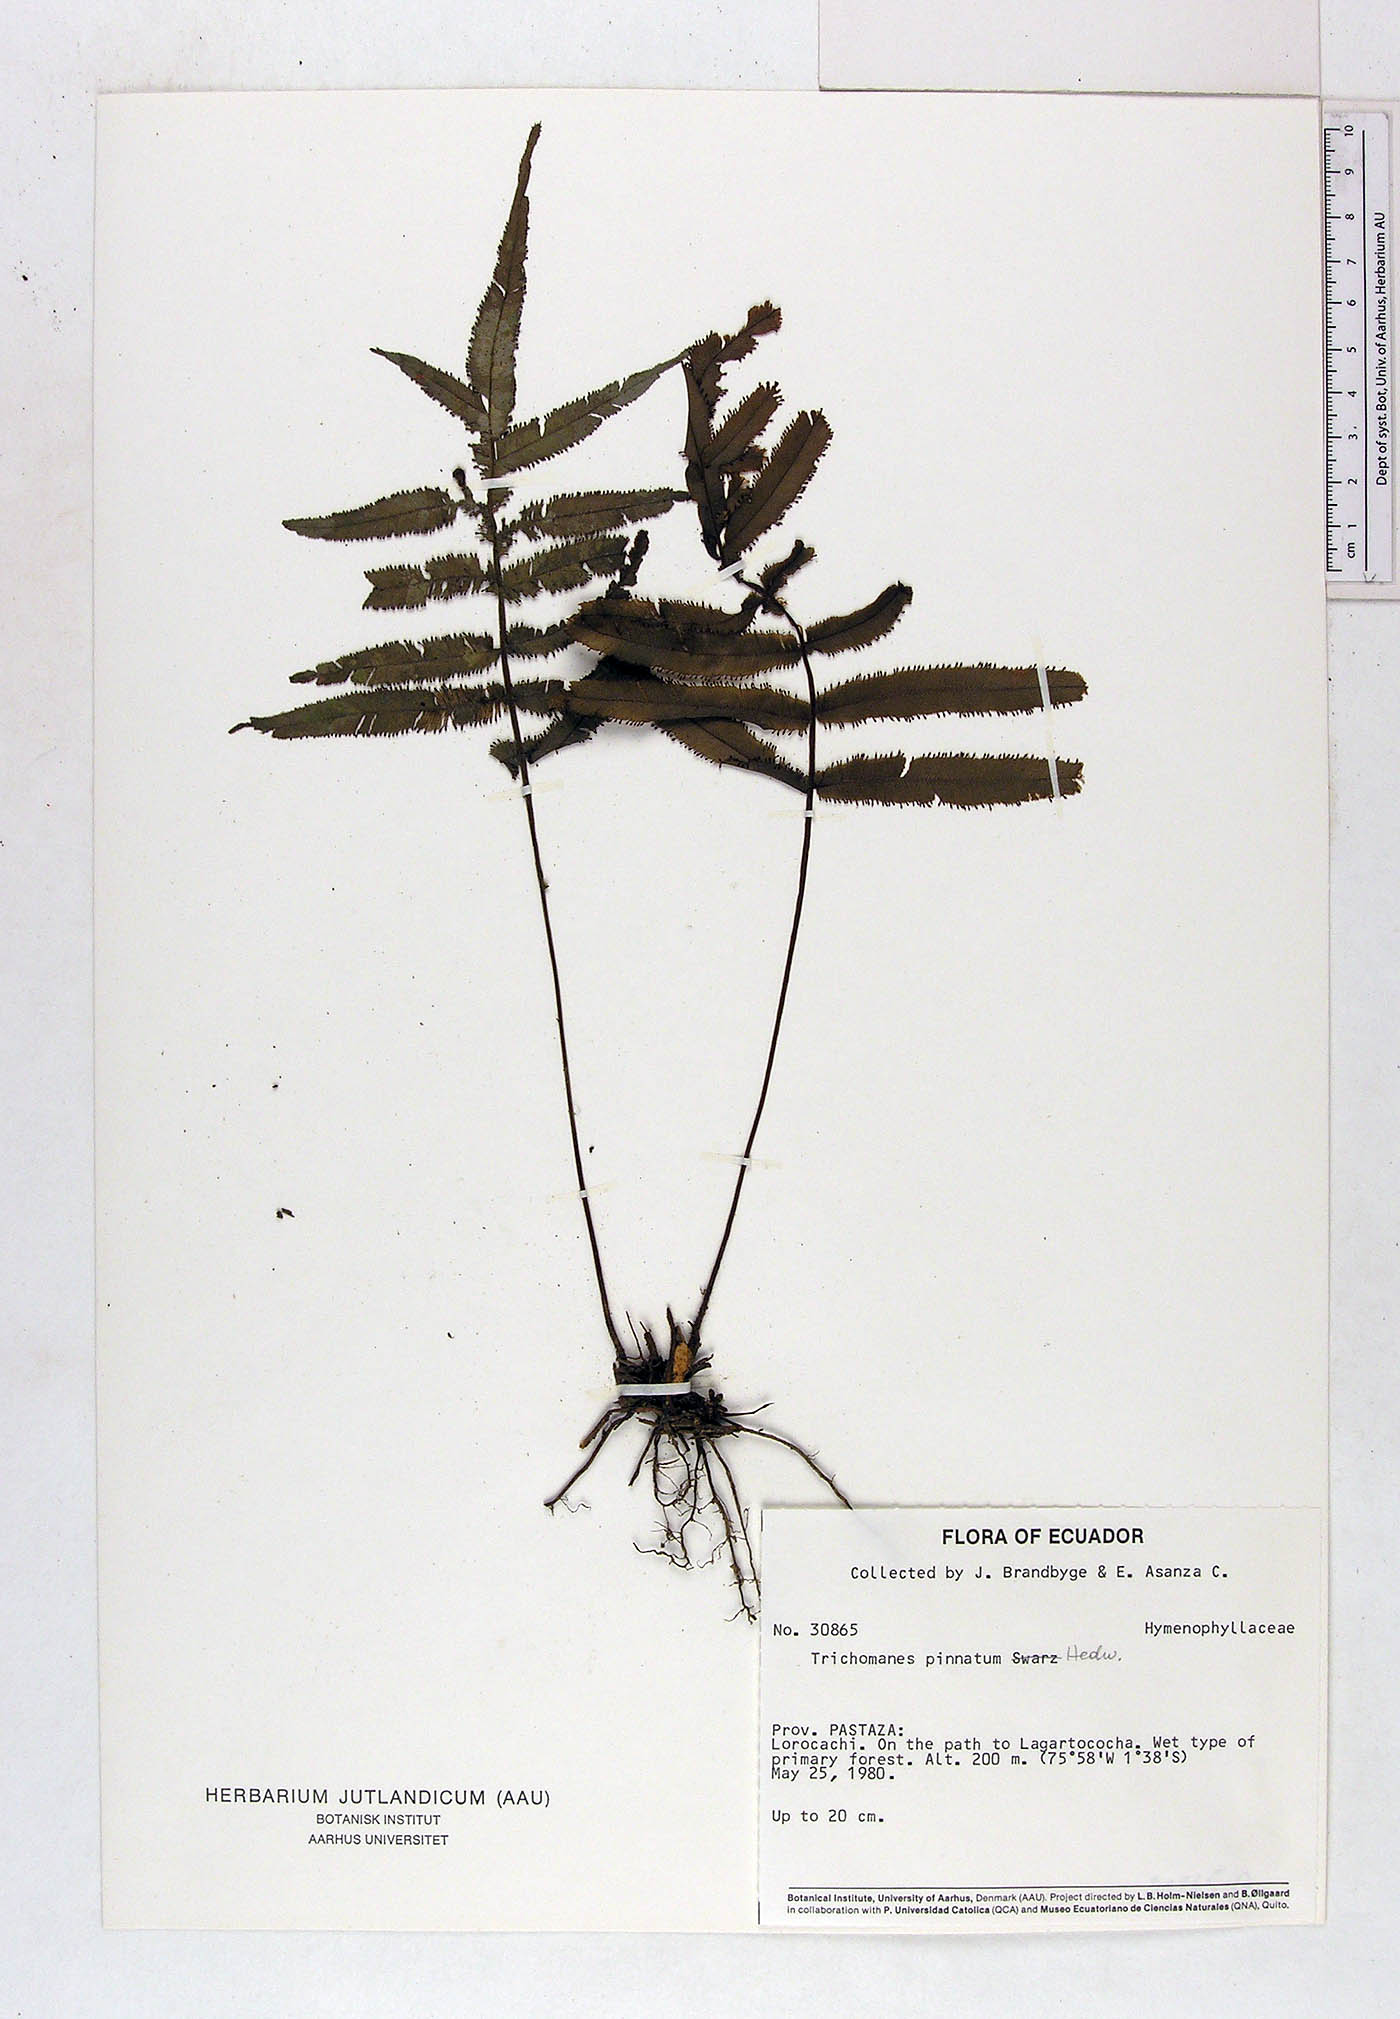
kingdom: Plantae
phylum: Tracheophyta
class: Polypodiopsida
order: Hymenophyllales
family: Hymenophyllaceae
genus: Trichomanes
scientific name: Trichomanes pinnatum
